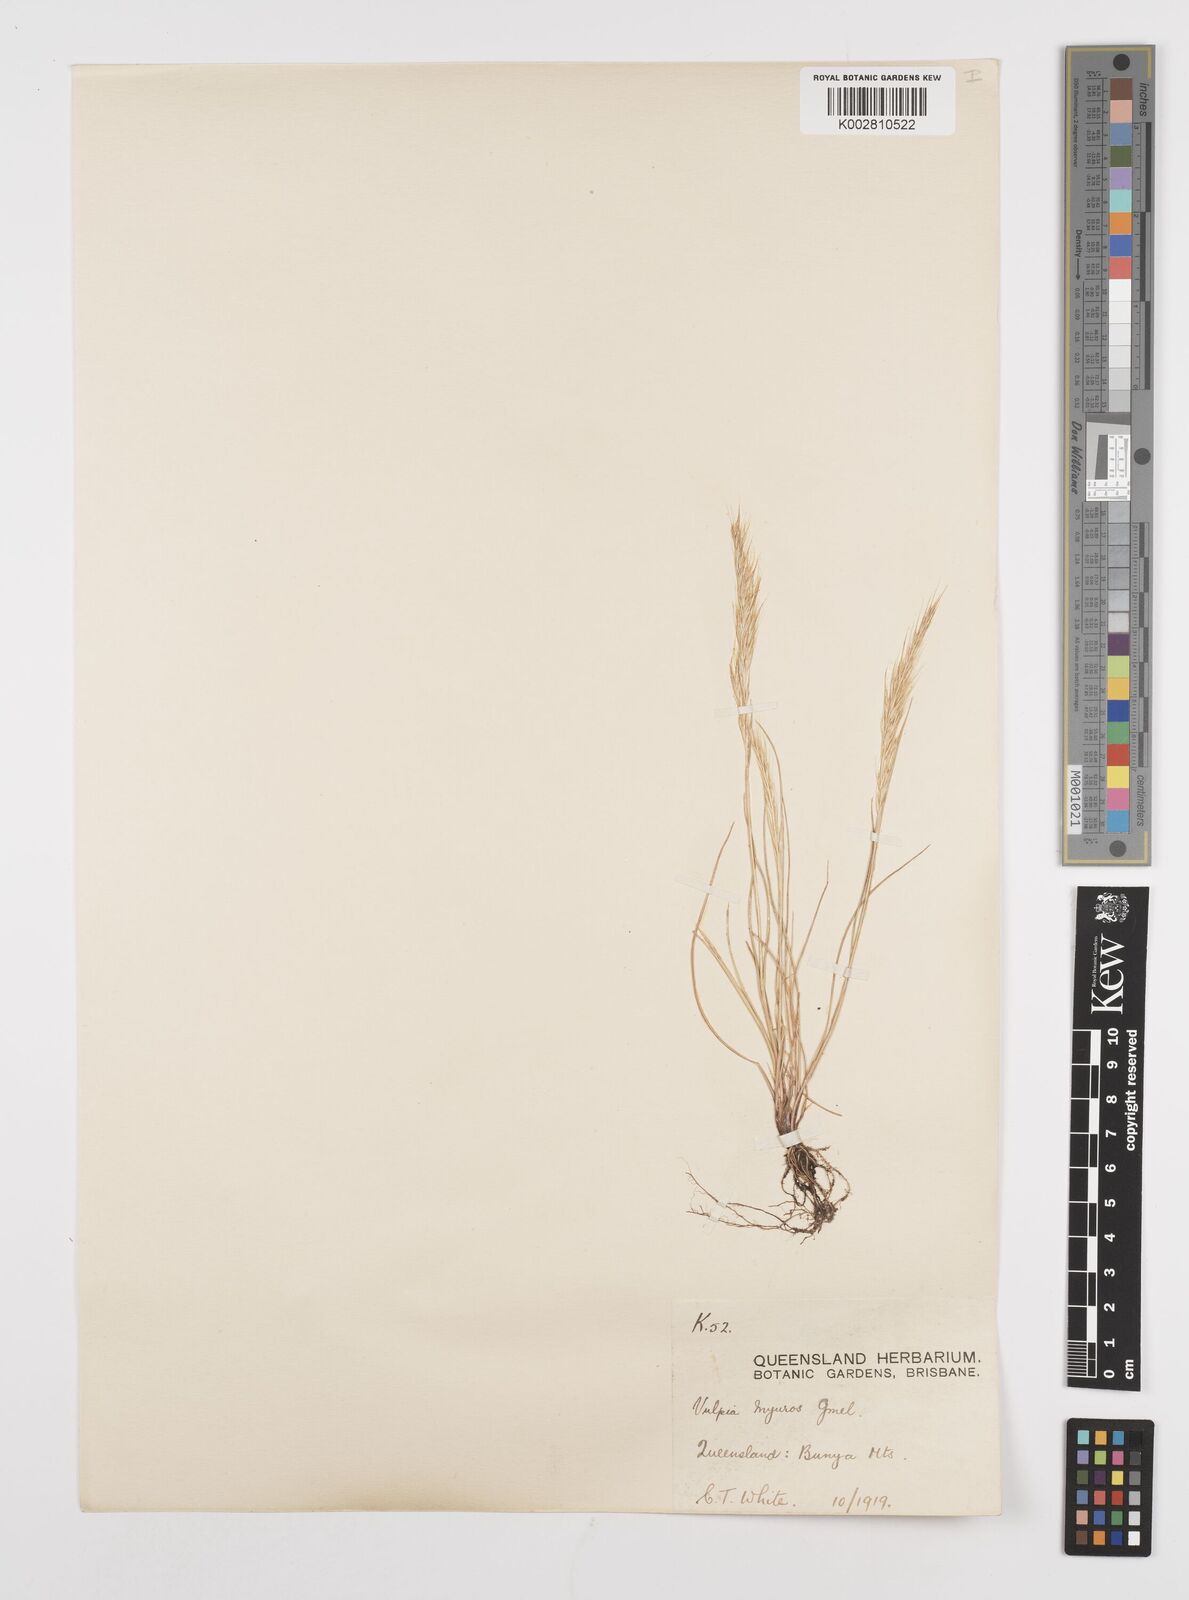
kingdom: Plantae
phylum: Tracheophyta
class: Liliopsida
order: Poales
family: Poaceae
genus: Festuca
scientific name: Festuca myuros
